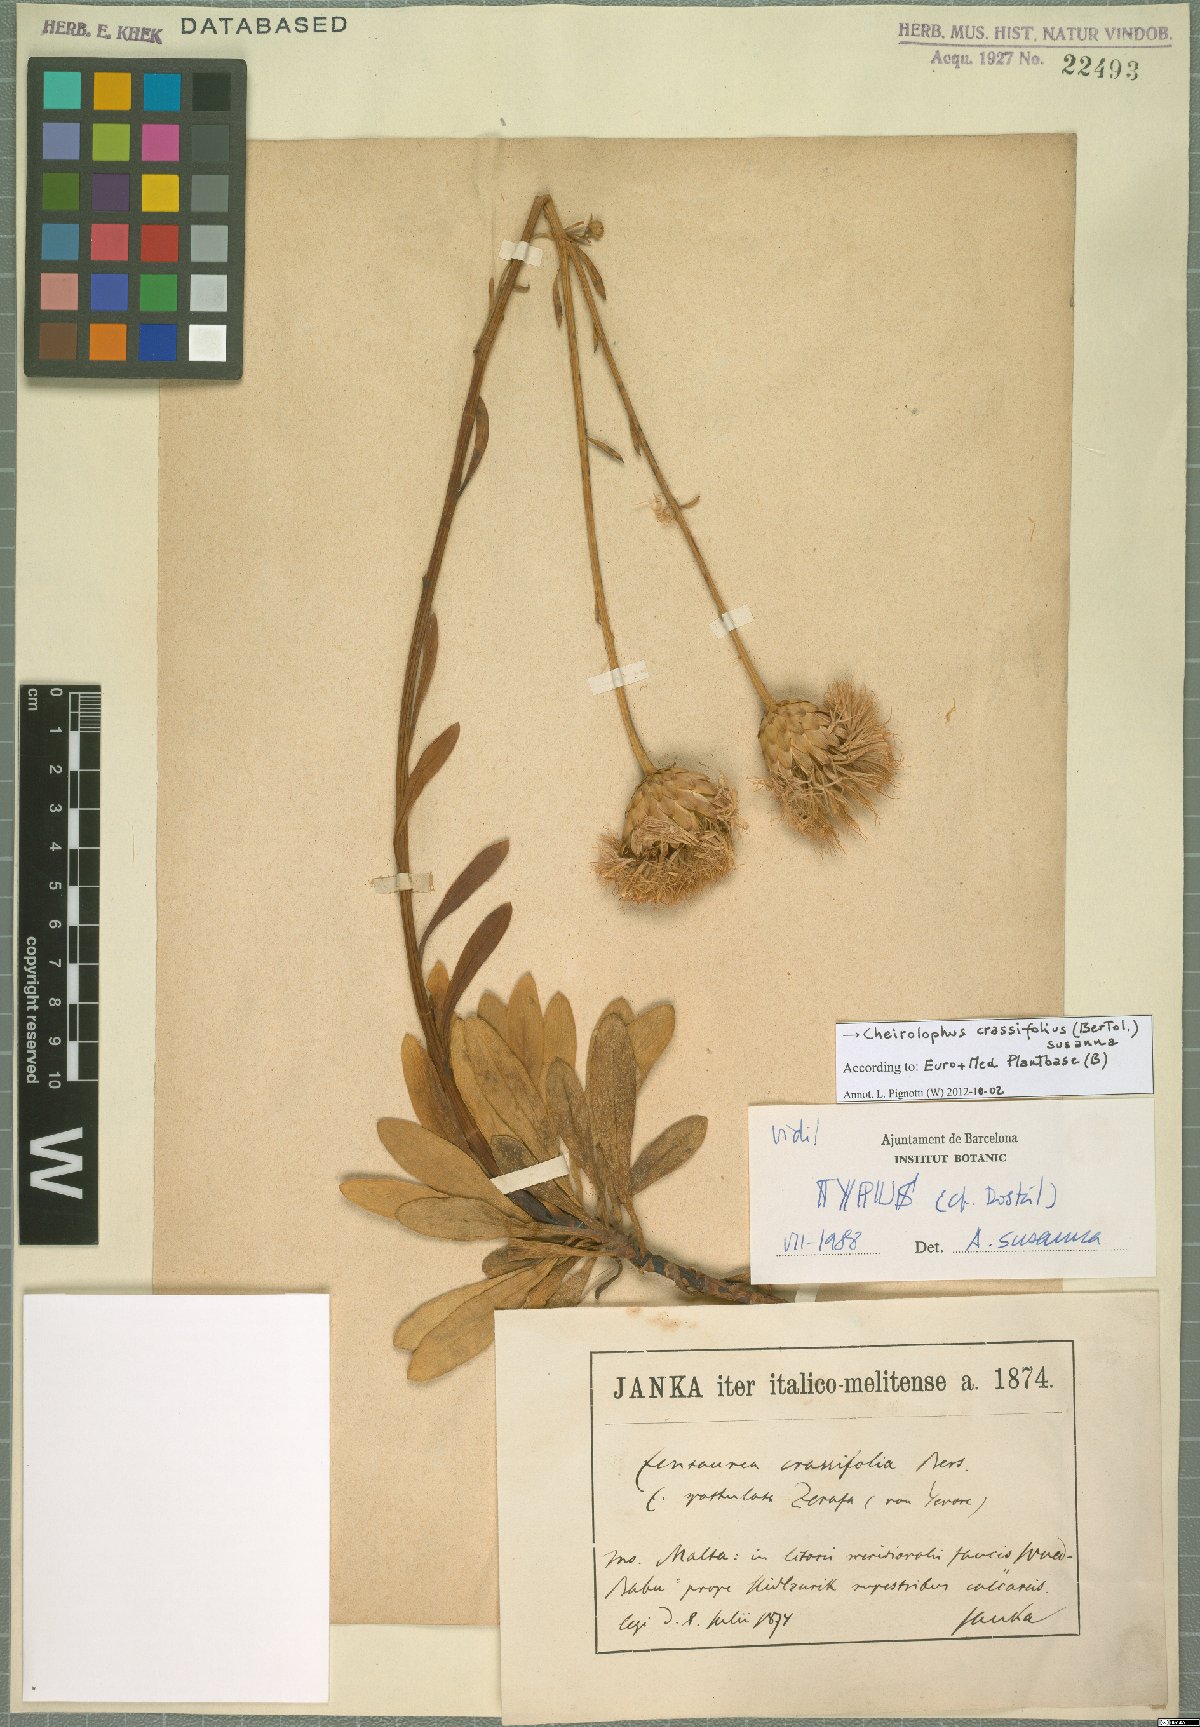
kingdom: Plantae
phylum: Tracheophyta
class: Magnoliopsida
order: Asterales
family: Asteraceae
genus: Cheirolophus
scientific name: Cheirolophus crassifolius
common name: Maltese centaury
